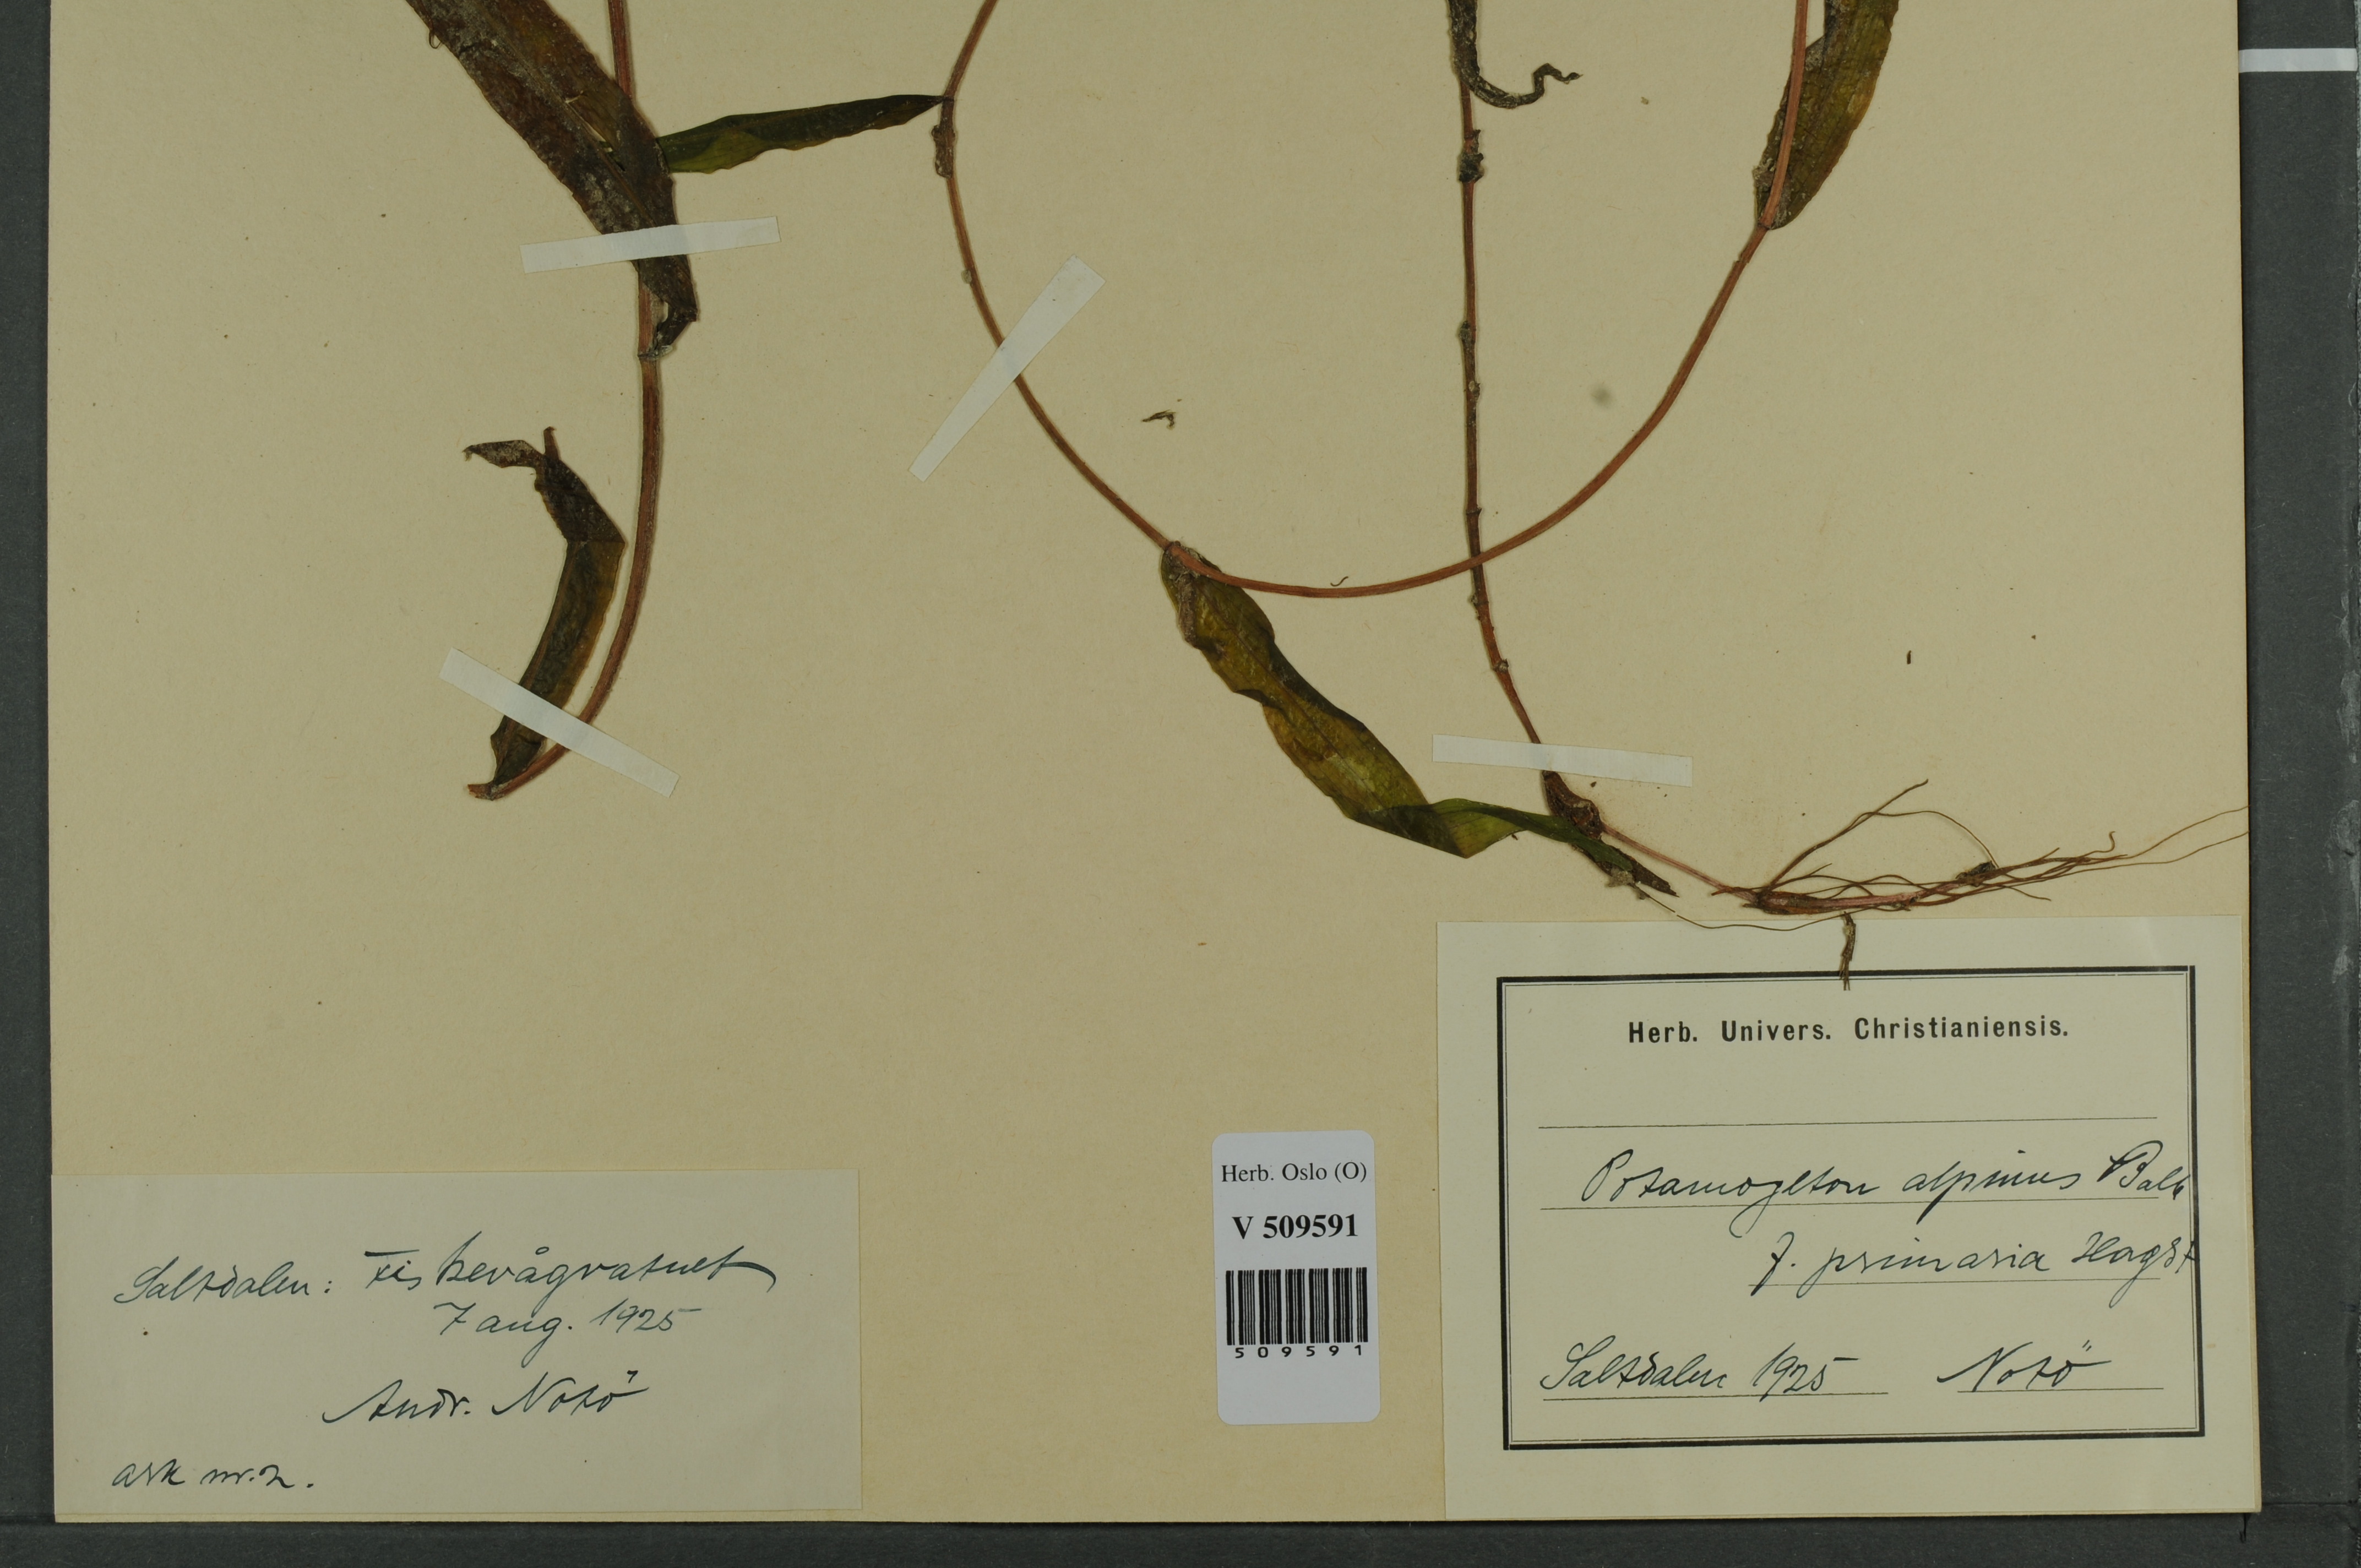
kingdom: Plantae
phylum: Tracheophyta
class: Liliopsida
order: Alismatales
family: Potamogetonaceae
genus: Potamogeton
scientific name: Potamogeton alpinus
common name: Red pondweed
